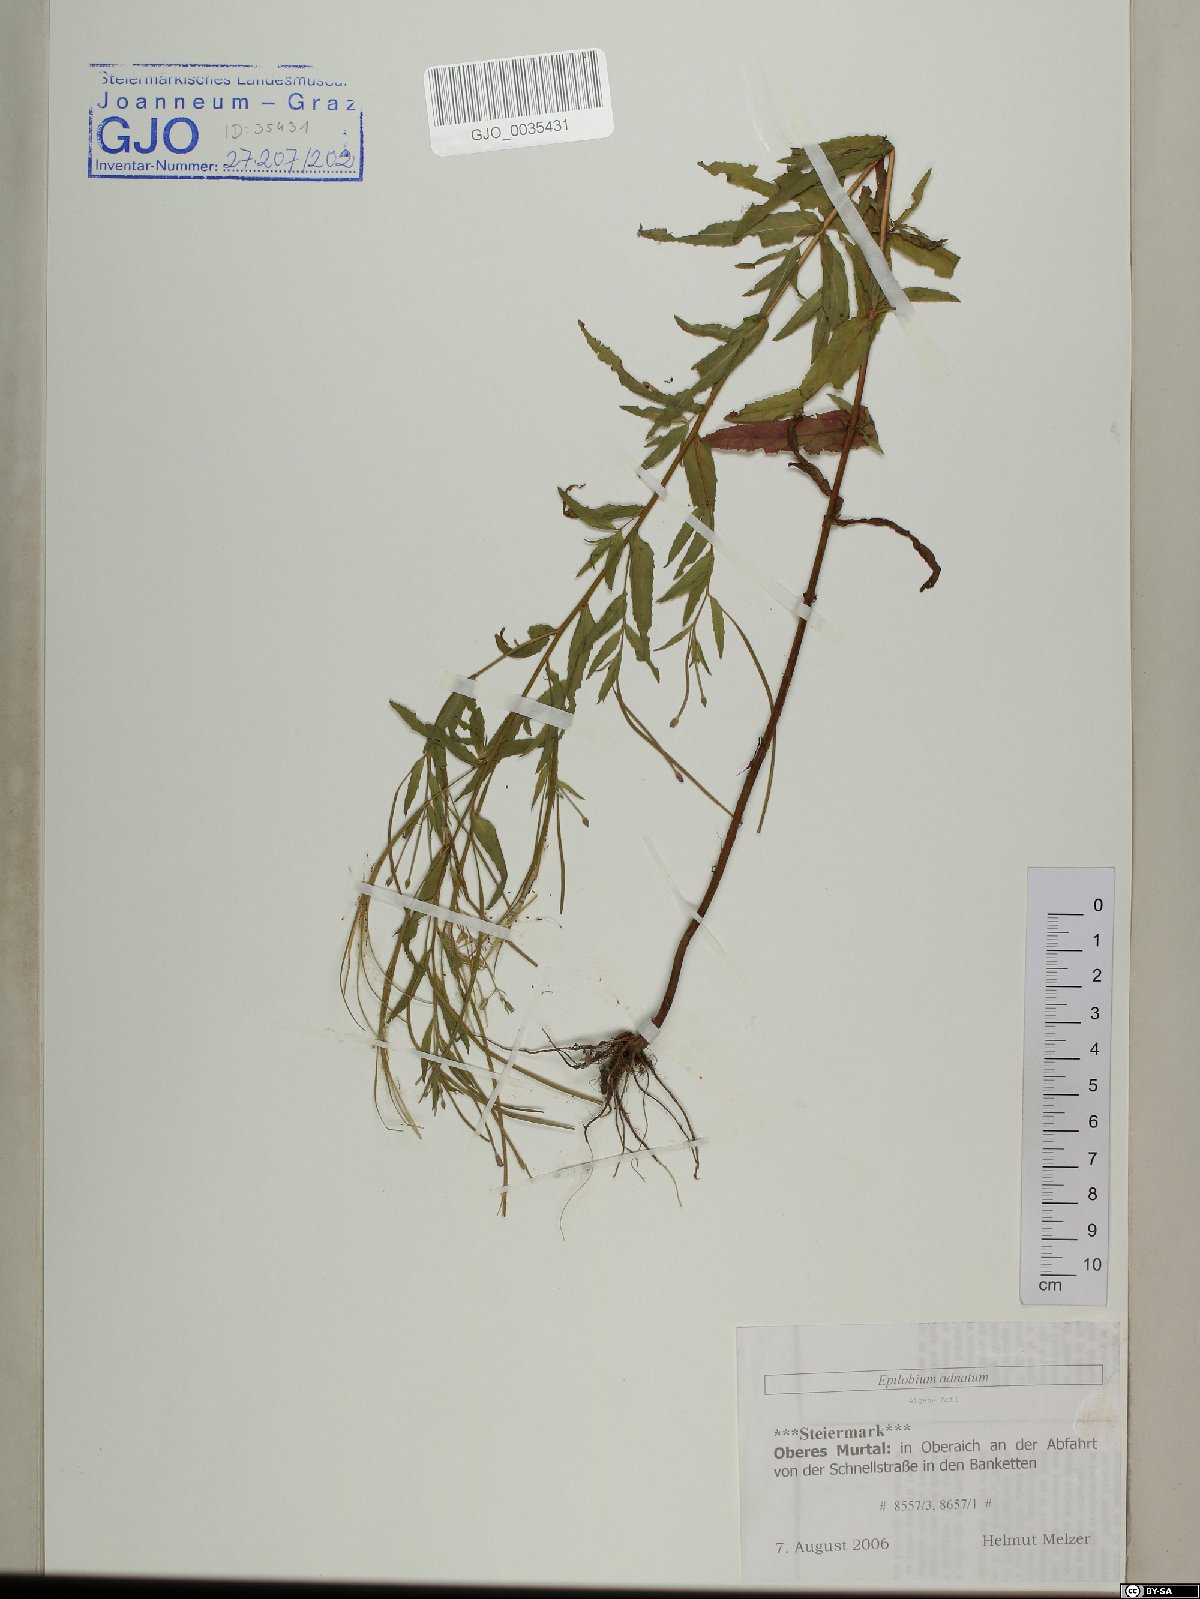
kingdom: Plantae
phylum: Tracheophyta
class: Magnoliopsida
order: Myrtales
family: Onagraceae
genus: Epilobium
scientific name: Epilobium tetragonum
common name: Square-stemmed willowherb
